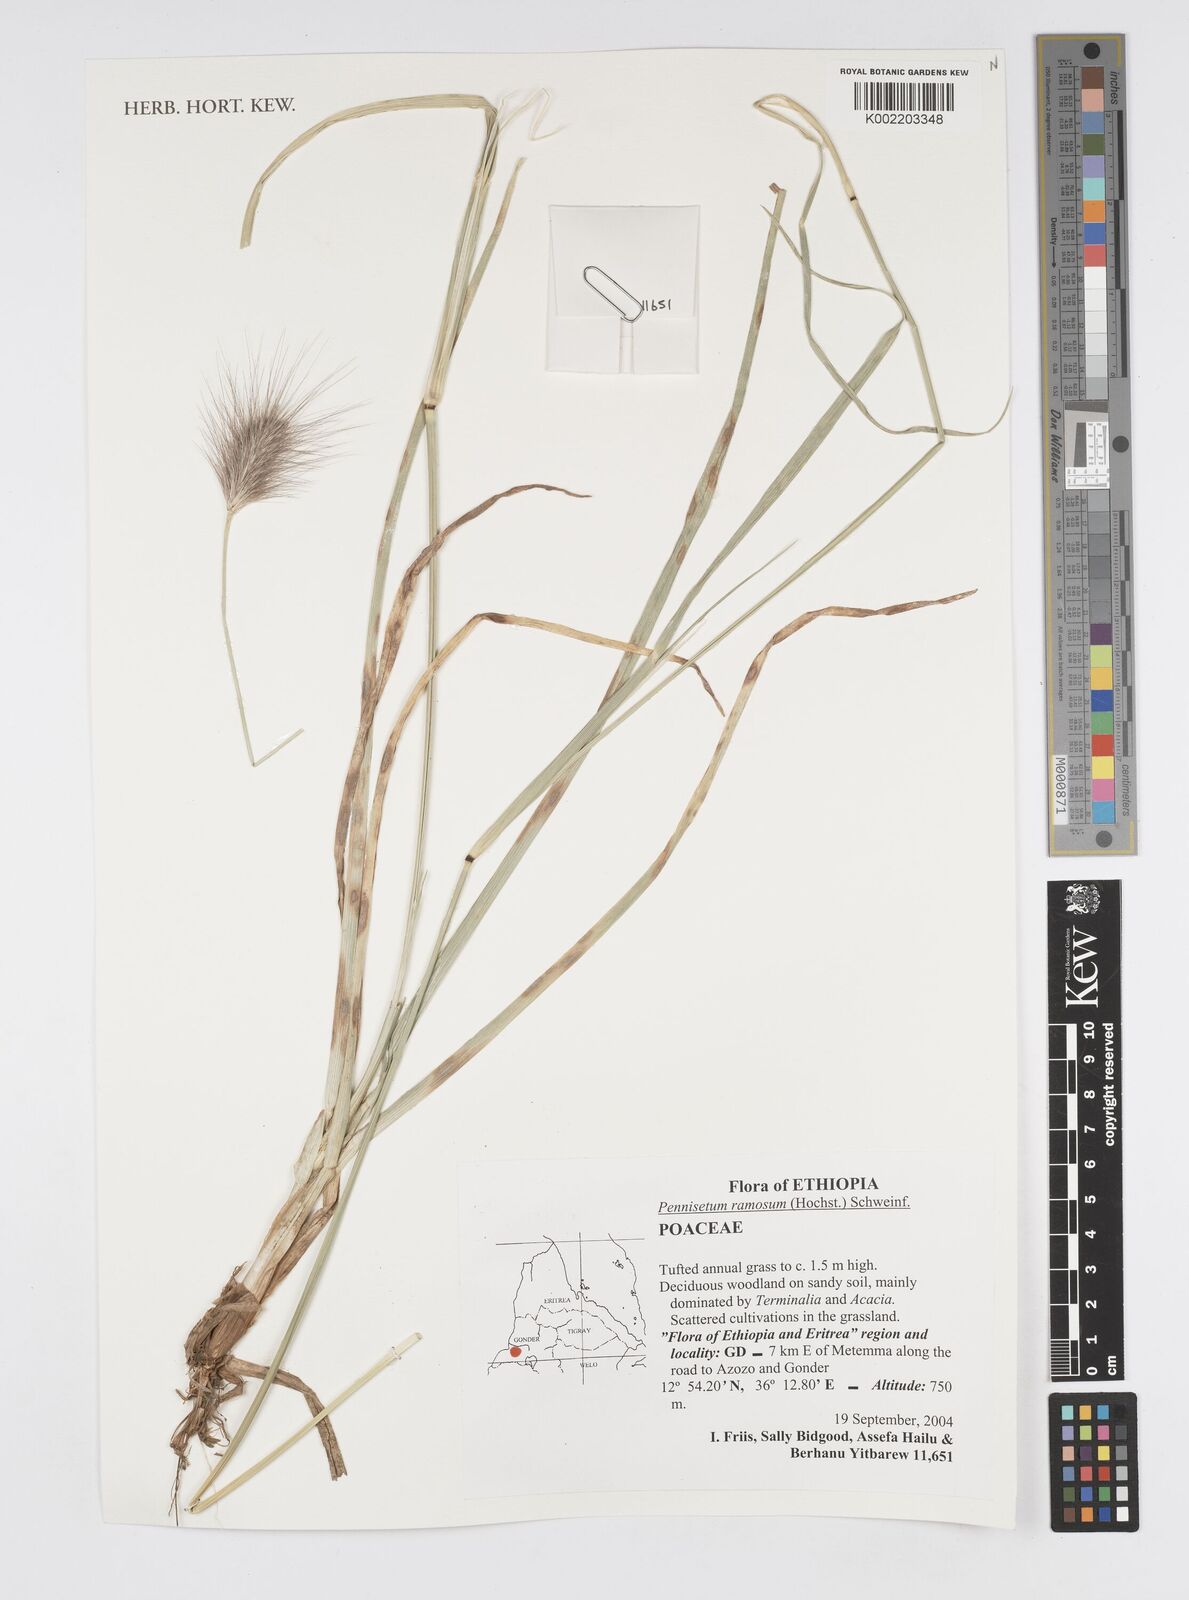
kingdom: Plantae
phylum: Tracheophyta
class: Liliopsida
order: Poales
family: Poaceae
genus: Cenchrus
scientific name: Cenchrus ramosus
